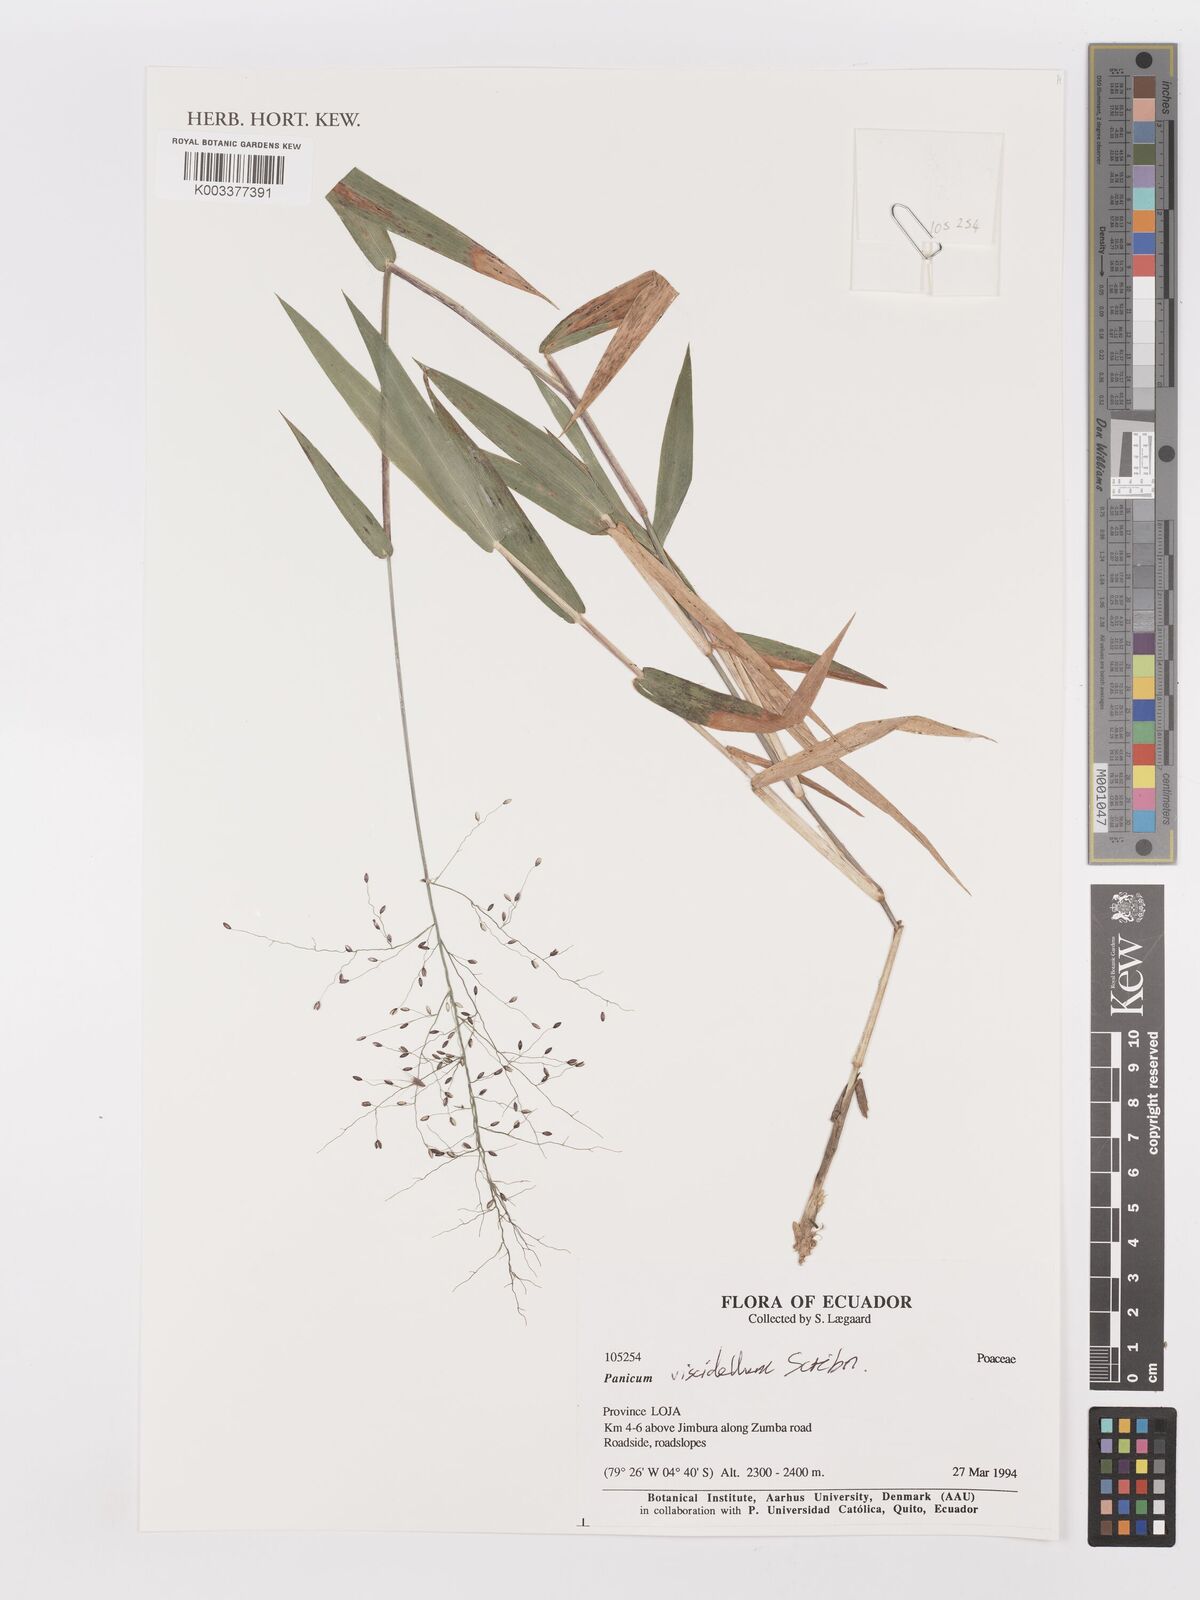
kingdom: Plantae
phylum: Tracheophyta
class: Liliopsida
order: Poales
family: Poaceae
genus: Dichanthelium
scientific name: Dichanthelium viscidellum
